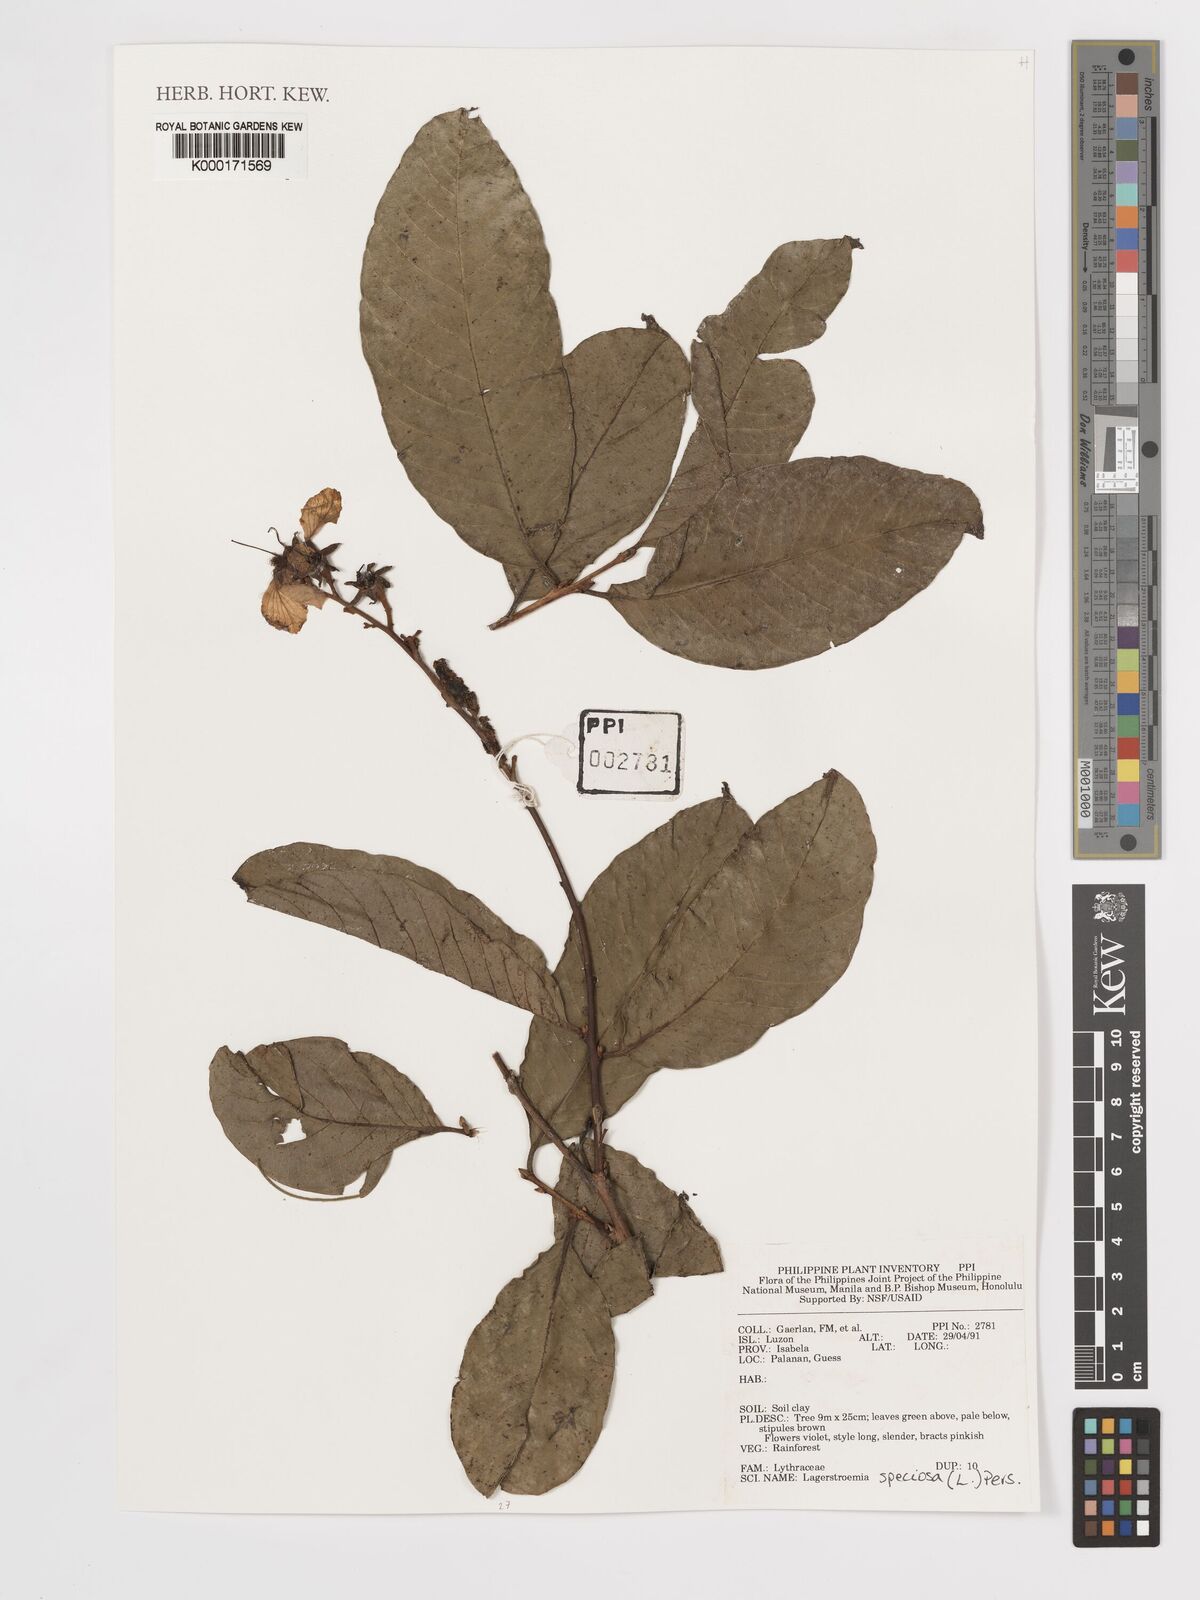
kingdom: Plantae
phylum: Tracheophyta
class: Magnoliopsida
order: Myrtales
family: Lythraceae
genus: Lagerstroemia
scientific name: Lagerstroemia speciosa
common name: Queen's crape-myrtle
